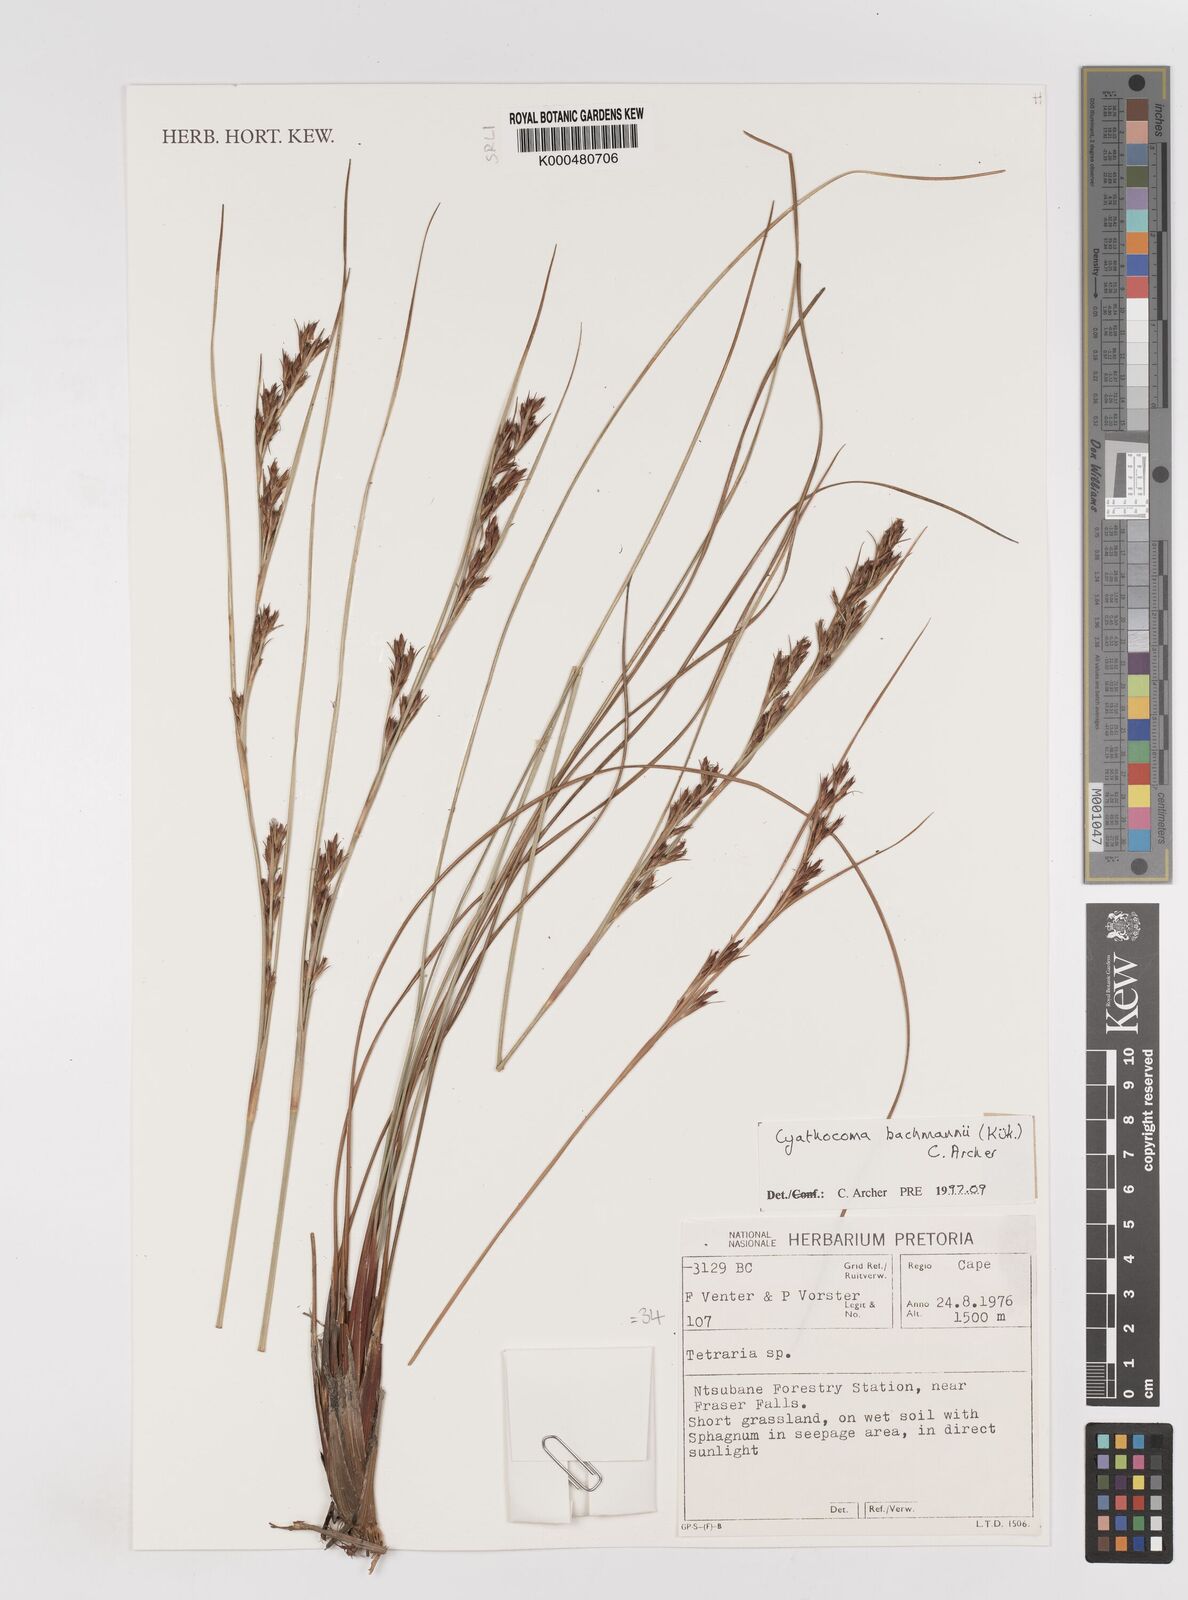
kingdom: Plantae
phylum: Tracheophyta
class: Liliopsida
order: Poales
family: Cyperaceae
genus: Cyathocoma
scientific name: Cyathocoma
